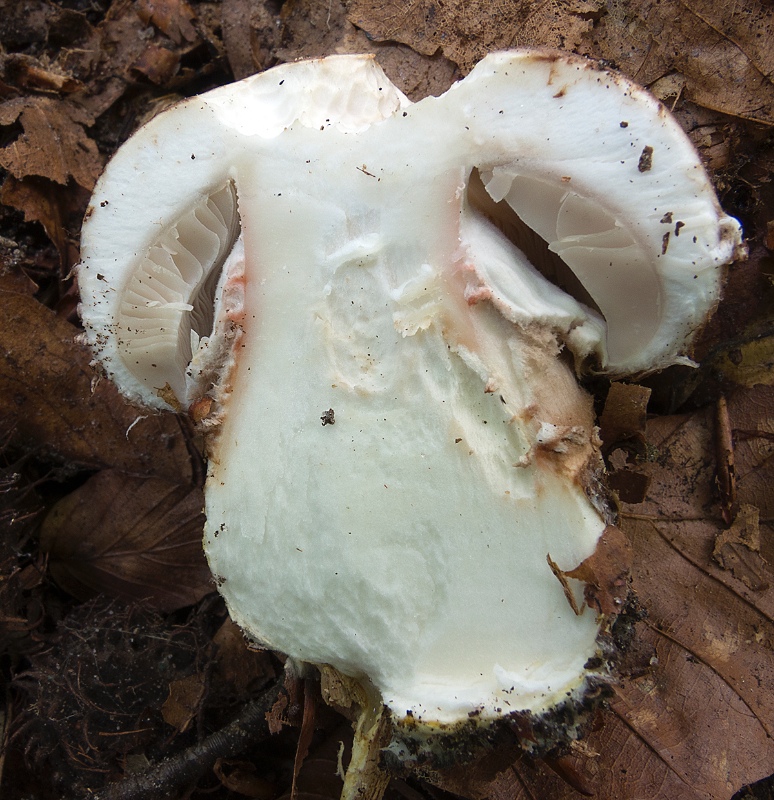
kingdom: Fungi
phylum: Basidiomycota
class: Agaricomycetes
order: Agaricales
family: Agaricaceae
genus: Agaricus
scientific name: Agaricus lanipes
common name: uldstokket champignon
